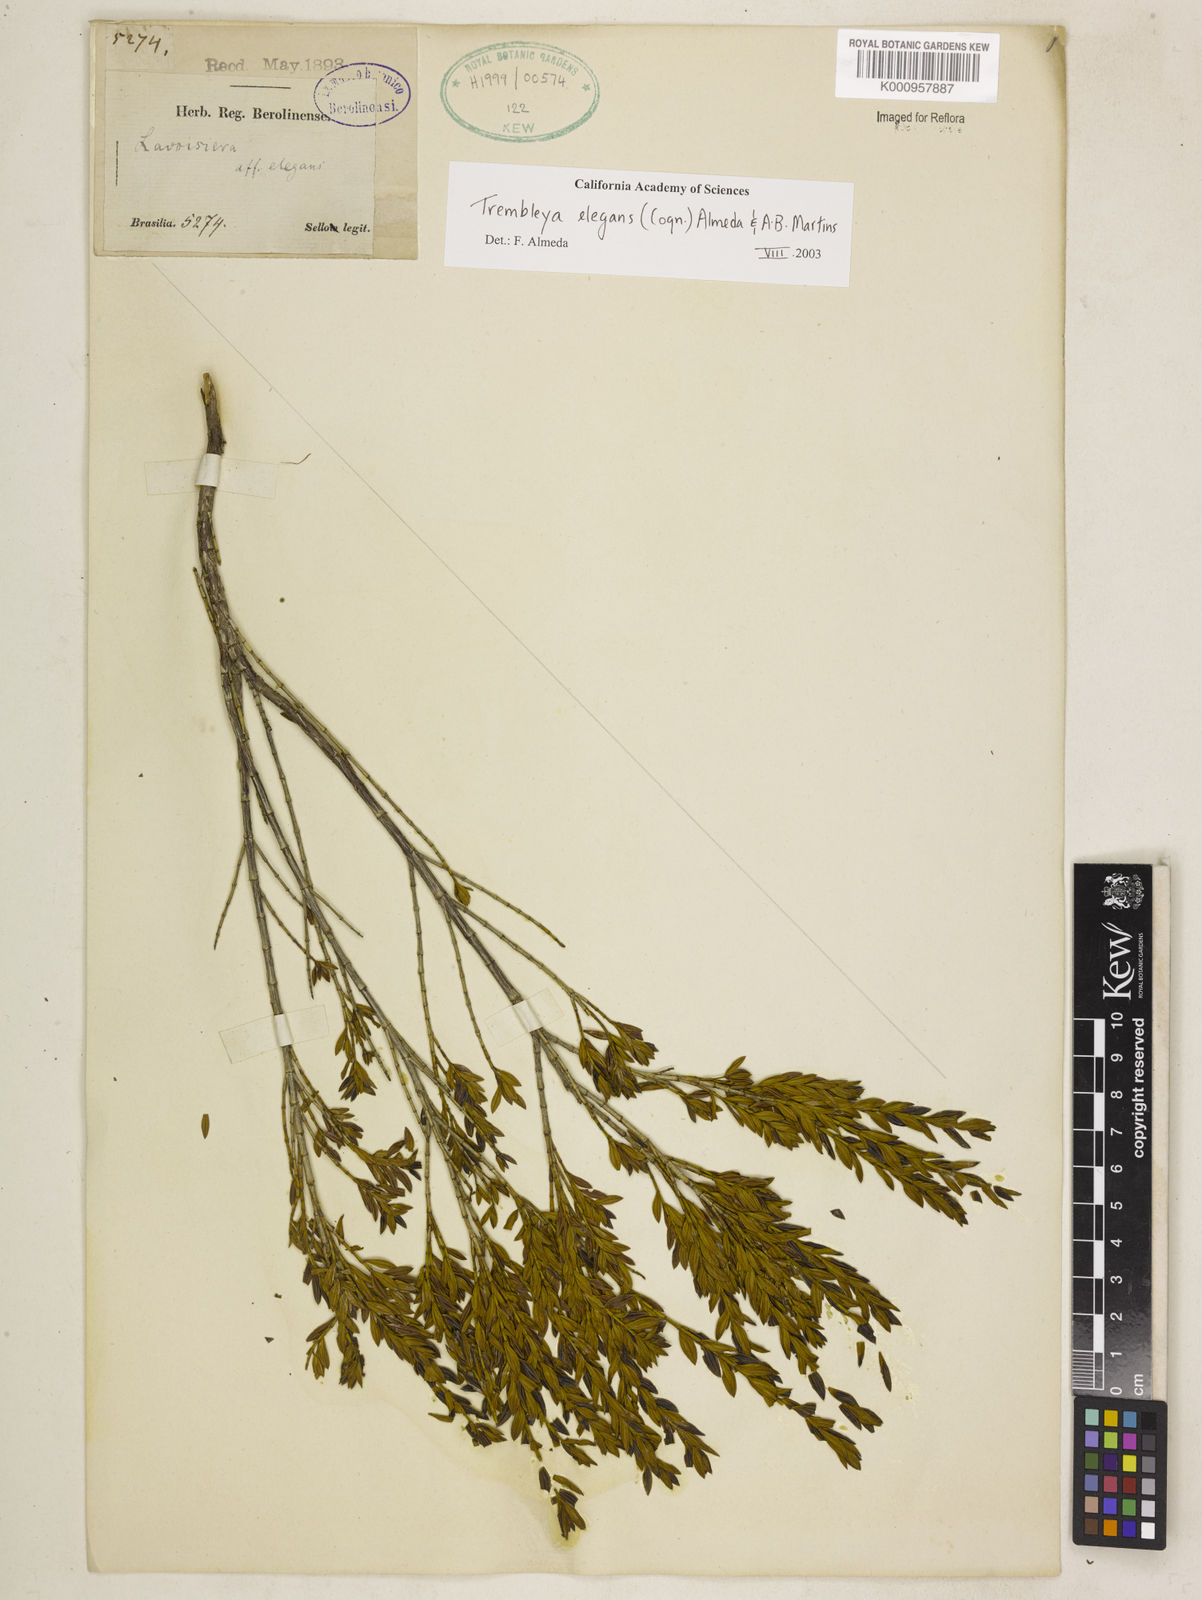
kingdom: Plantae
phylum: Tracheophyta
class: Magnoliopsida
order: Myrtales
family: Melastomataceae
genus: Microlicia
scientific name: Microlicia speciosa
